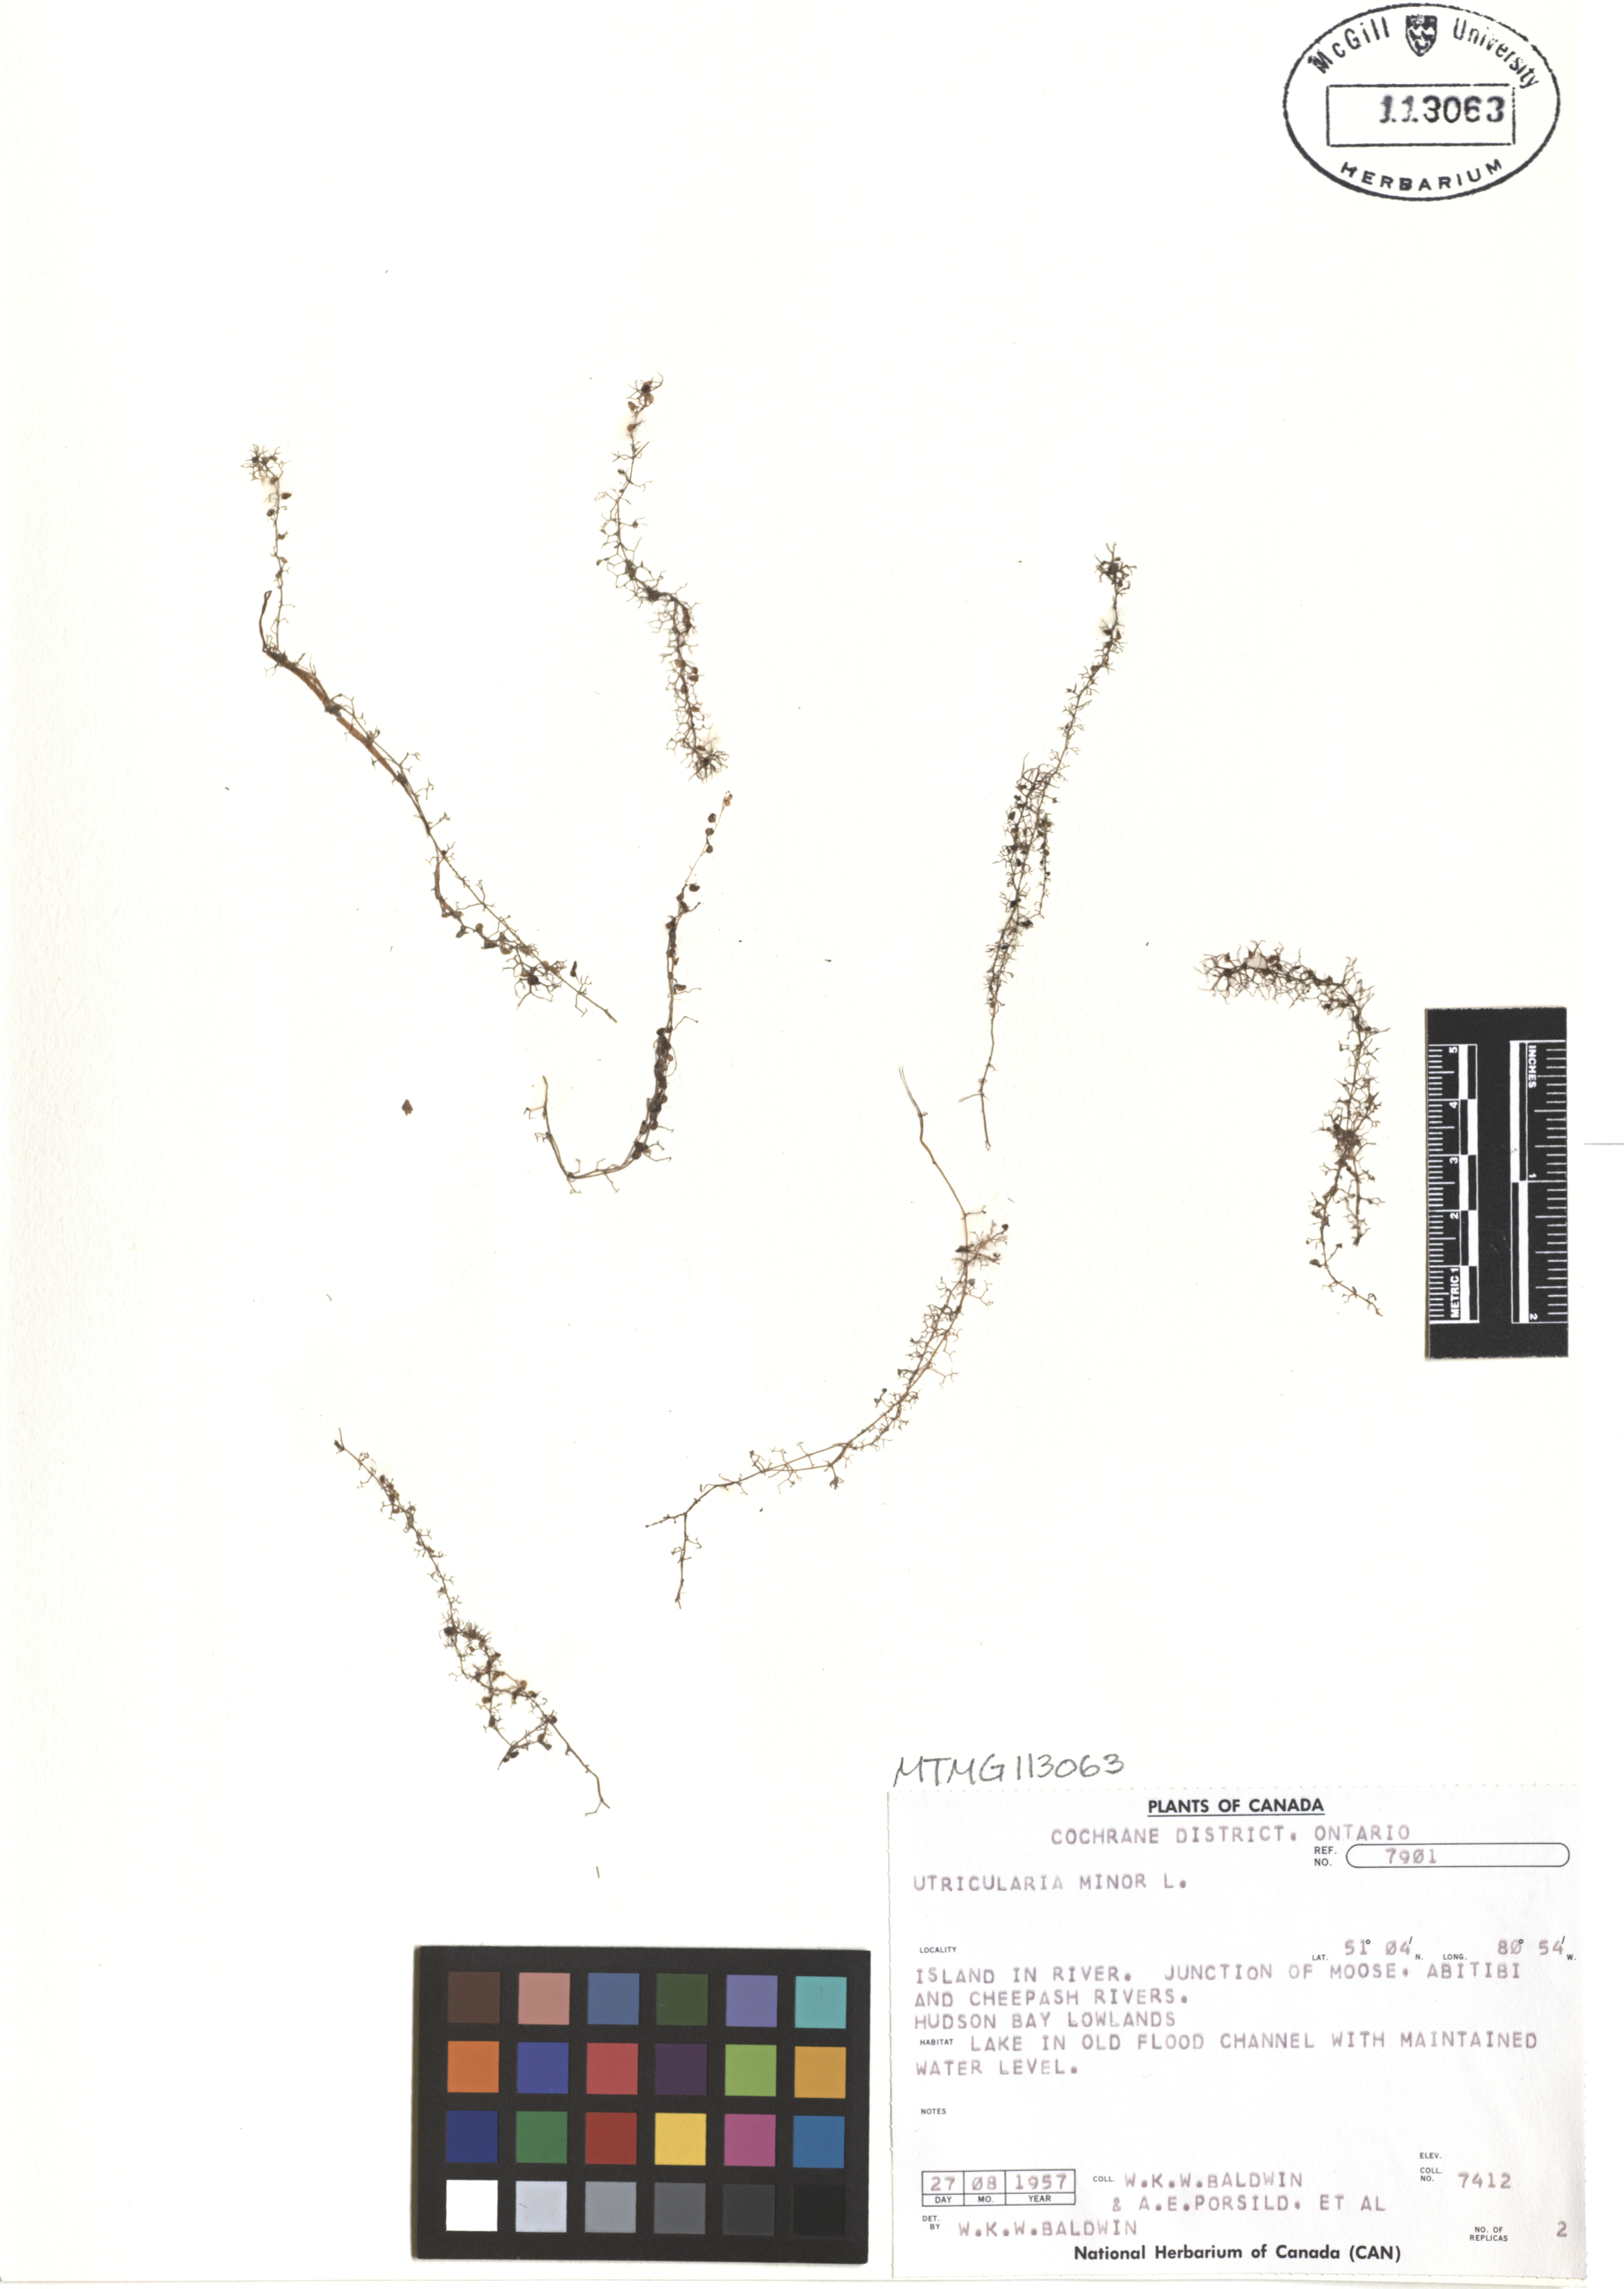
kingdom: Plantae
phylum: Tracheophyta
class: Magnoliopsida
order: Lamiales
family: Lentibulariaceae
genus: Utricularia
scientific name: Utricularia minor
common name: Lesser bladderwort
